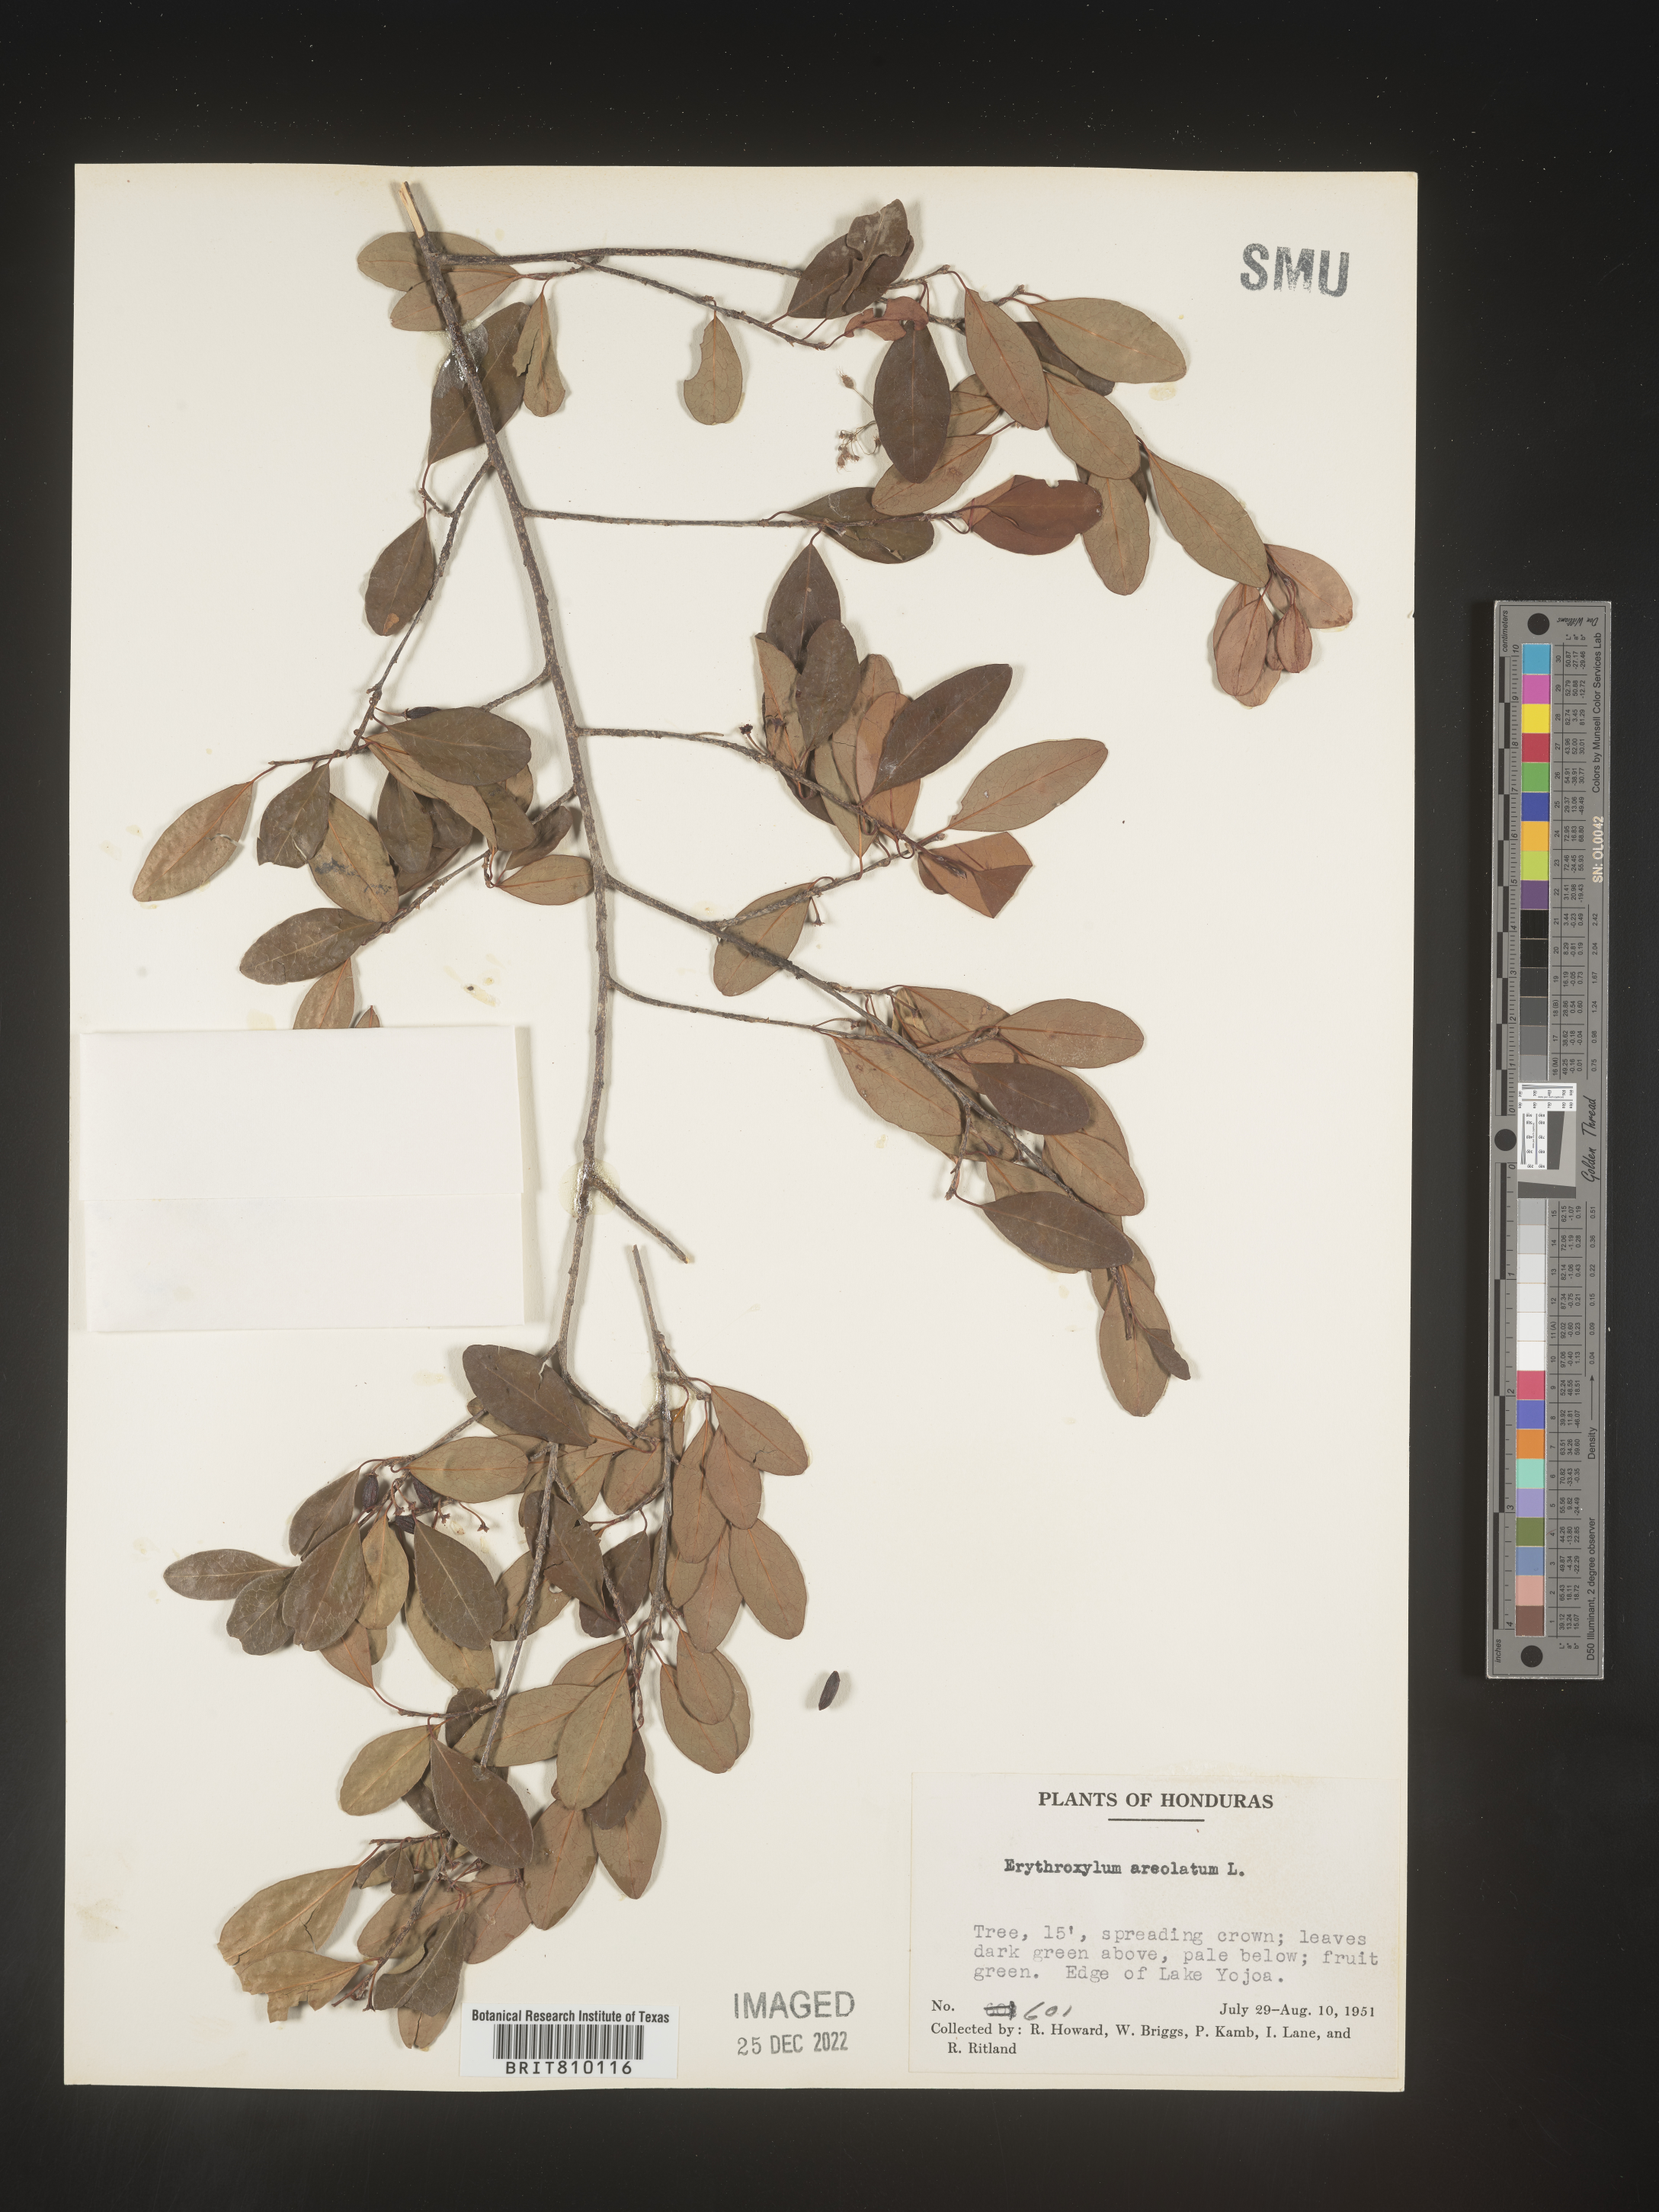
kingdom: Plantae
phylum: Tracheophyta
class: Magnoliopsida
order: Malpighiales
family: Erythroxylaceae
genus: Erythroxylum
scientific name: Erythroxylum
